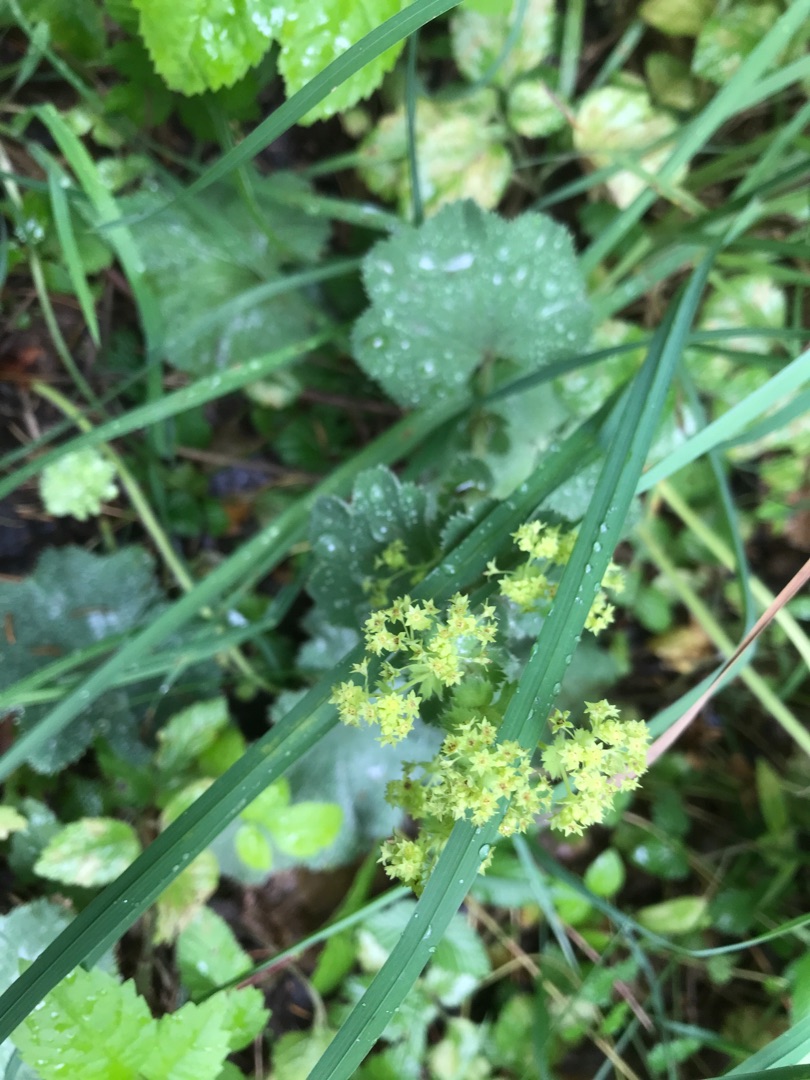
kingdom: Plantae
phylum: Tracheophyta
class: Magnoliopsida
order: Rosales
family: Rosaceae
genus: Alchemilla
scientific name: Alchemilla mollis
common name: Lådden løvefod
